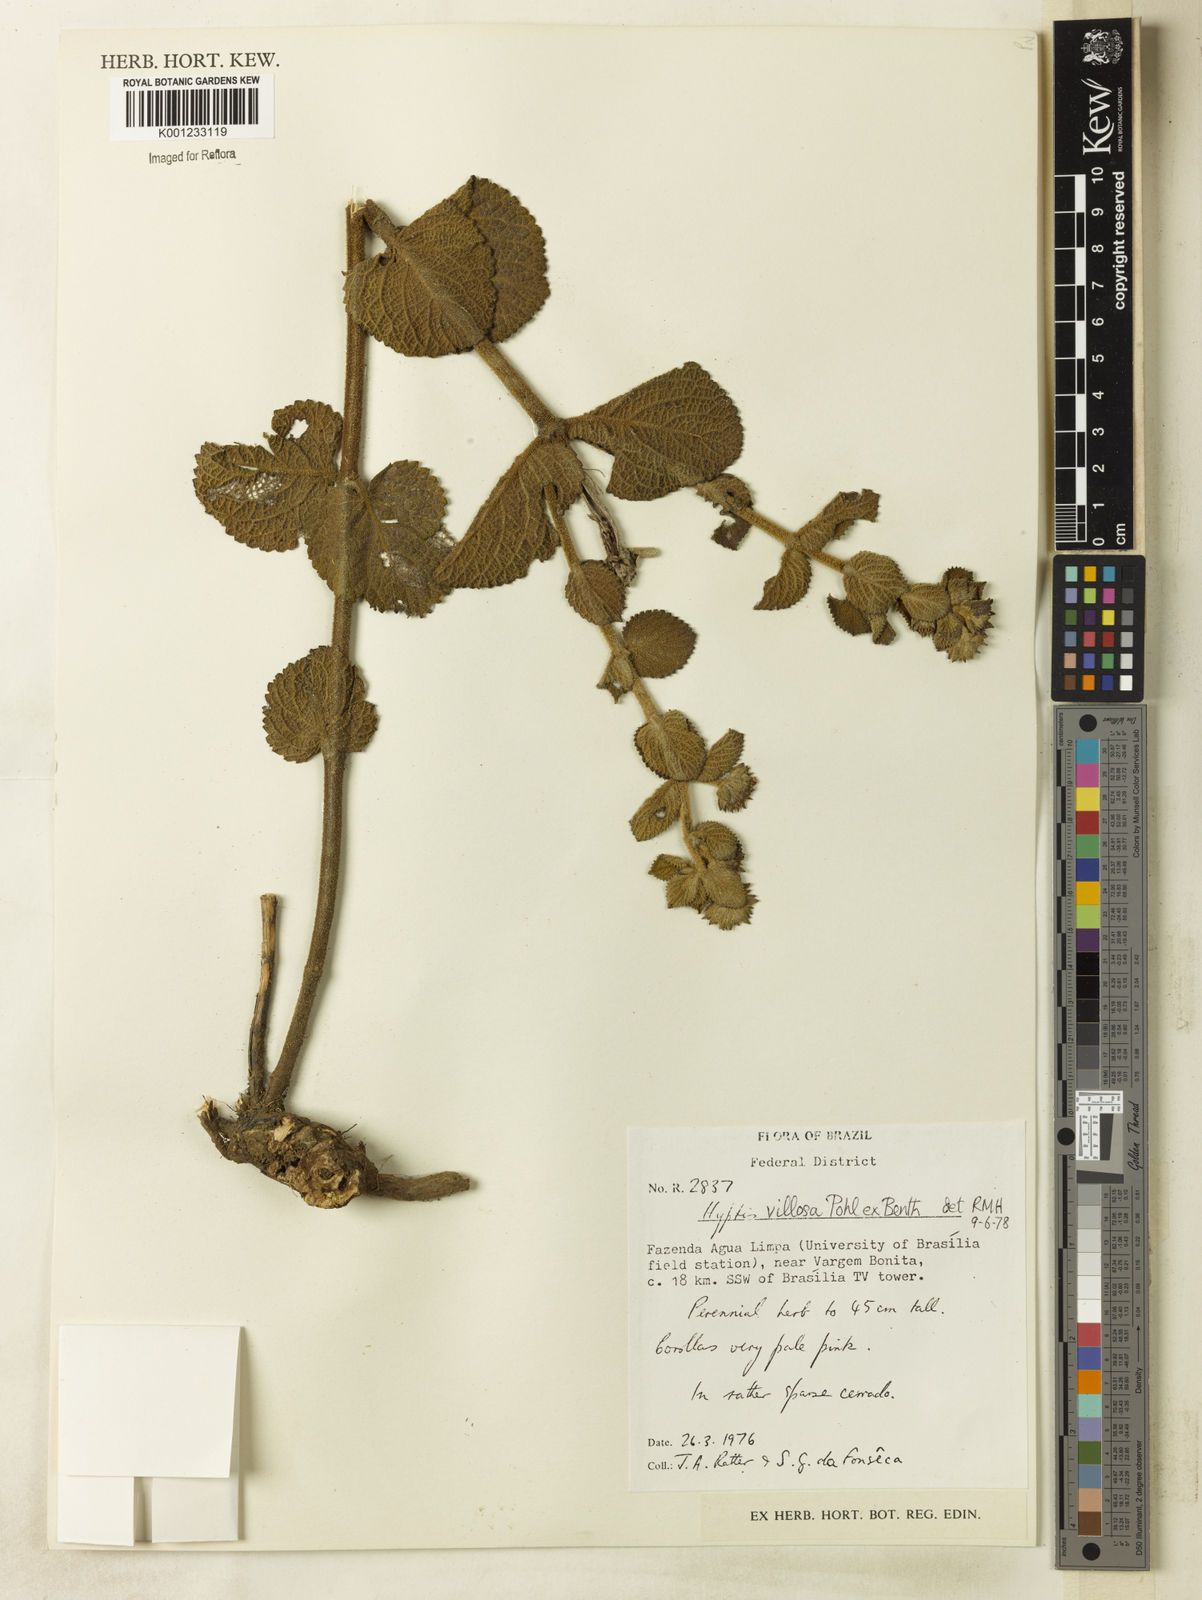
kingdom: Plantae
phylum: Tracheophyta
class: Magnoliopsida
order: Lamiales
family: Lamiaceae
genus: Hyptis
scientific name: Hyptis villosa
